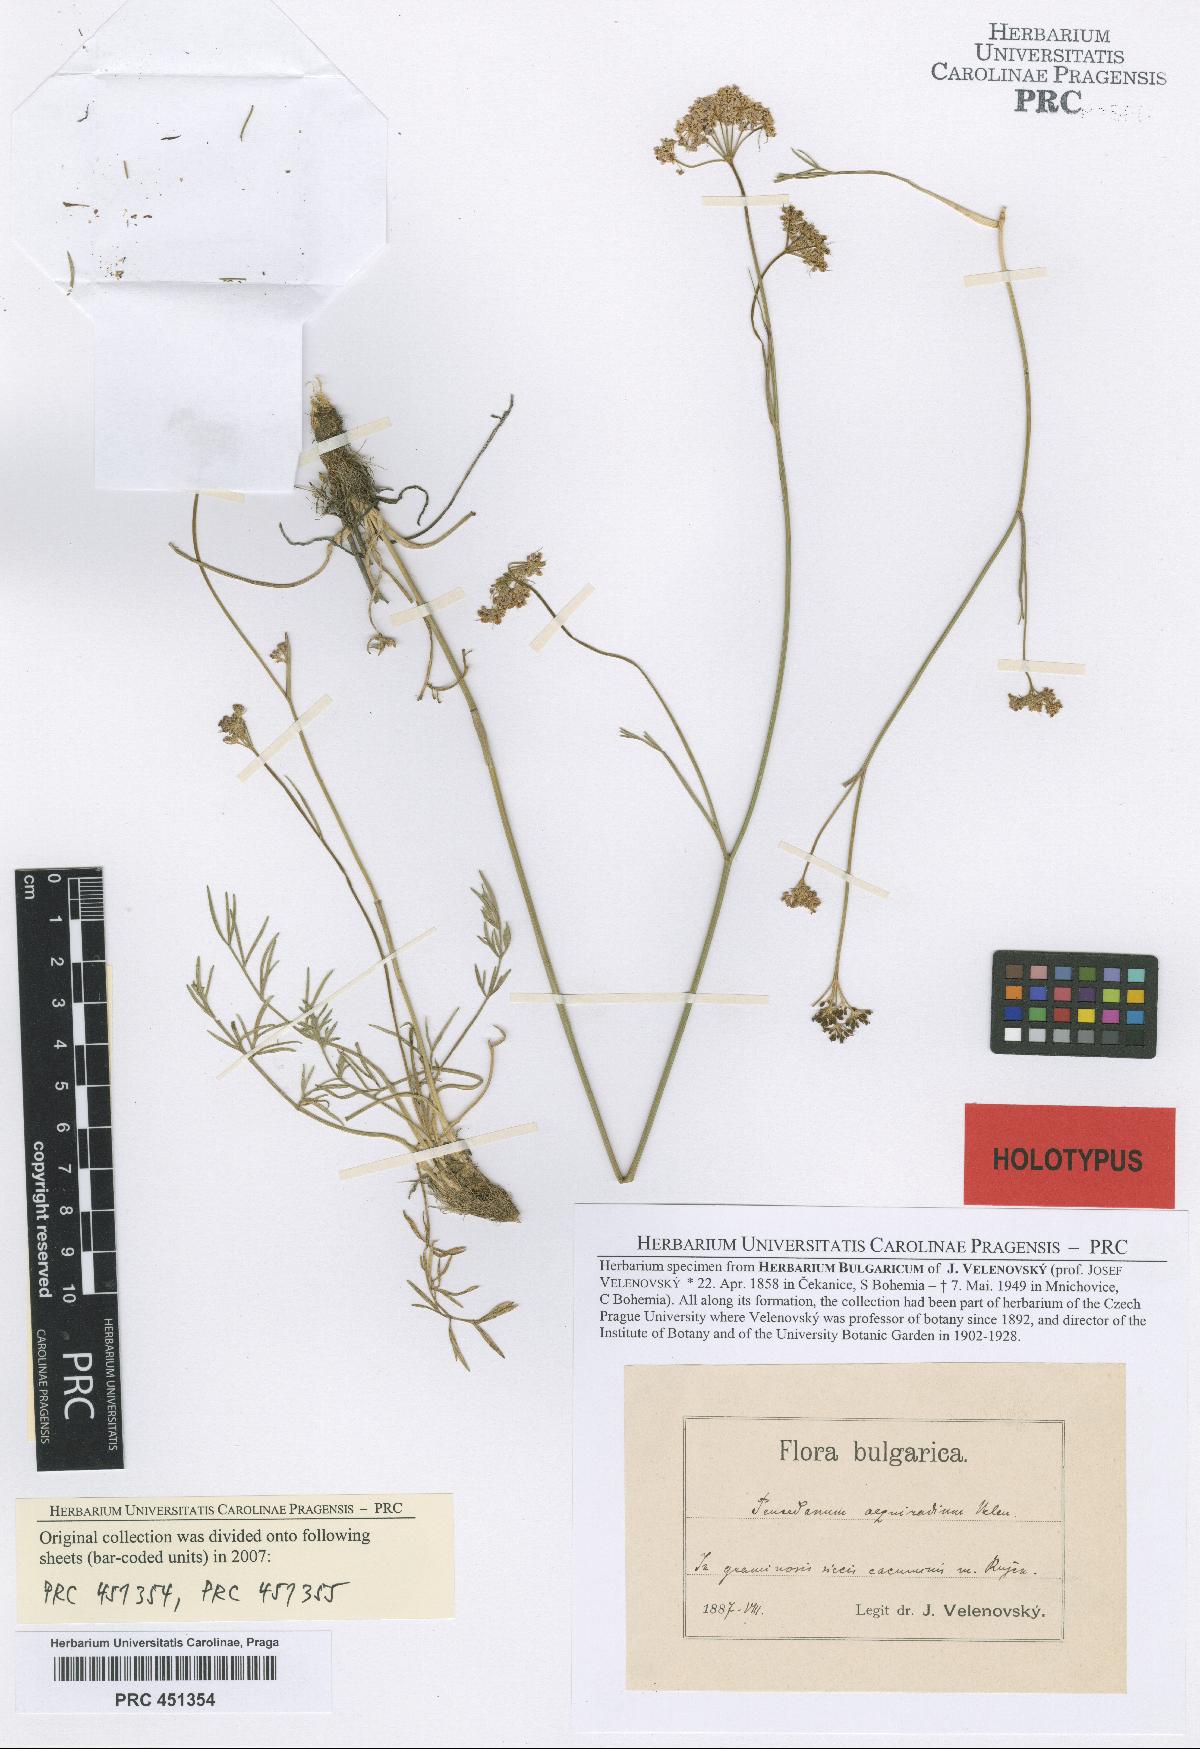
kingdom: Plantae
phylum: Tracheophyta
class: Magnoliopsida
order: Apiales
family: Apiaceae
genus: Dichoropetalum
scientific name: Dichoropetalum oligophyllum
